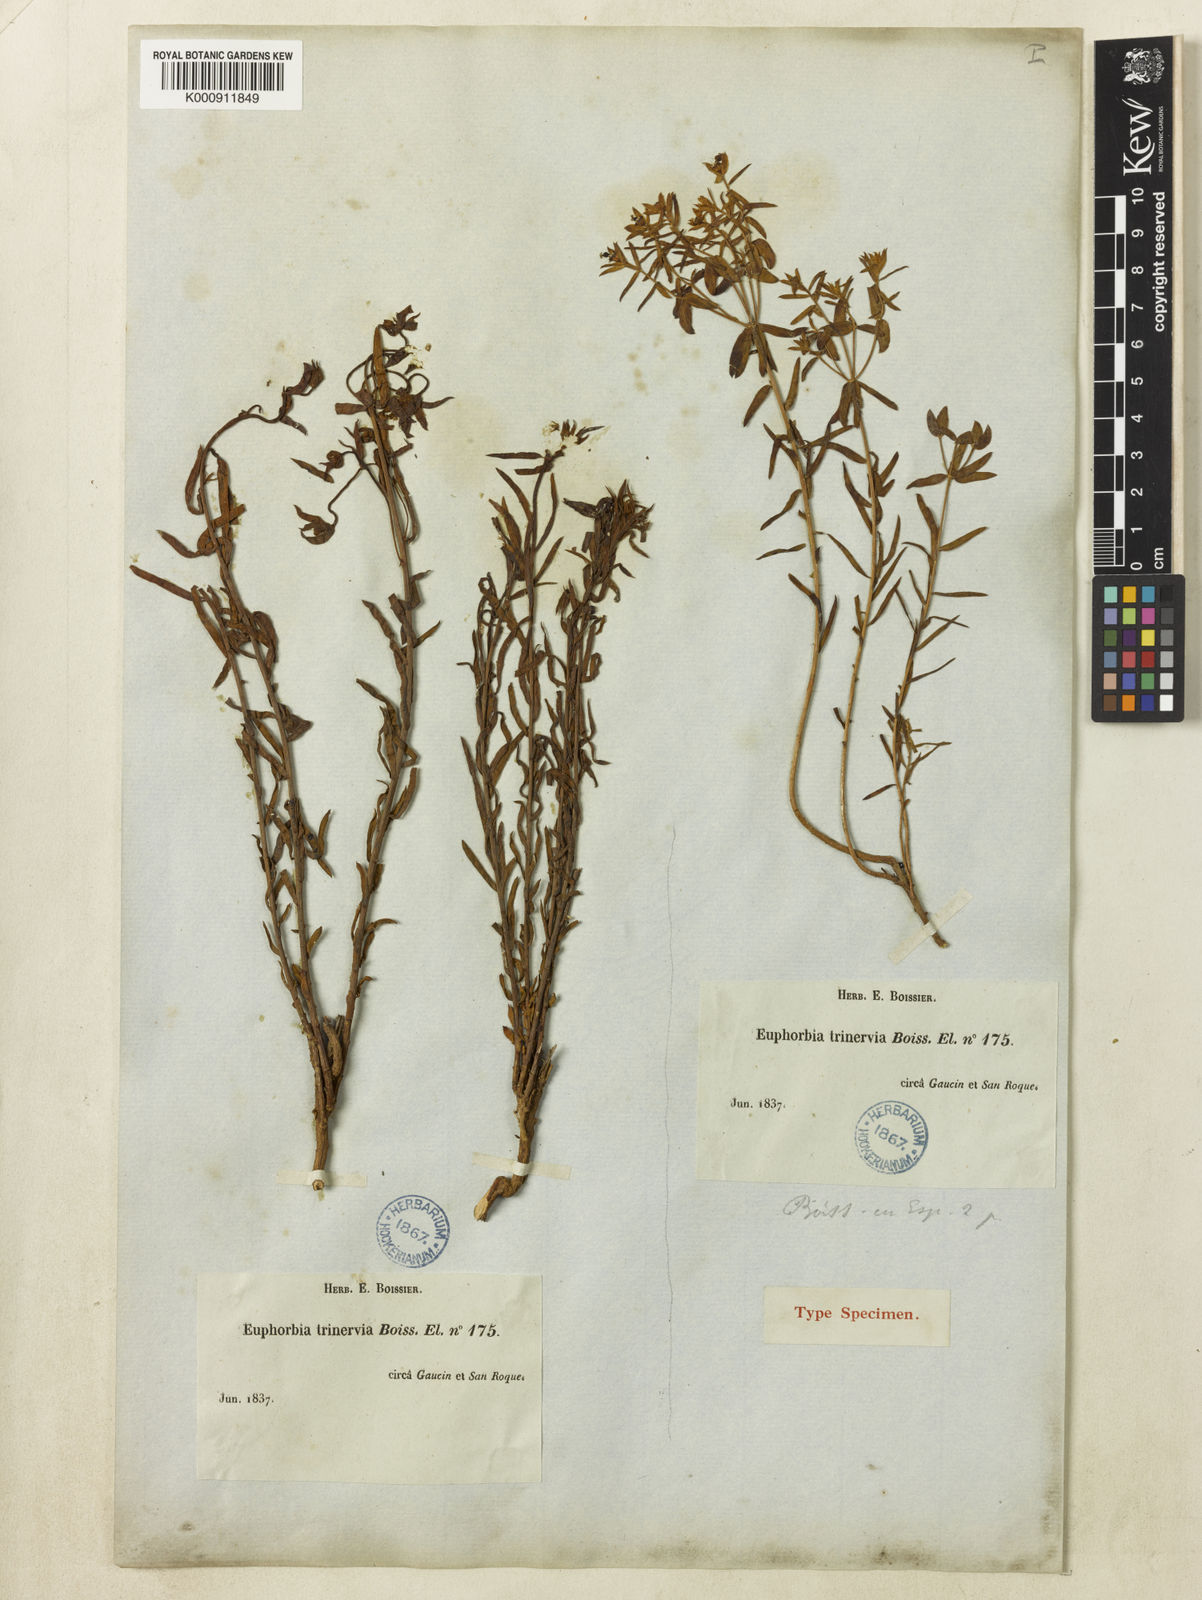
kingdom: Plantae
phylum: Tracheophyta
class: Magnoliopsida
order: Malpighiales
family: Euphorbiaceae
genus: Euphorbia
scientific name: Euphorbia
